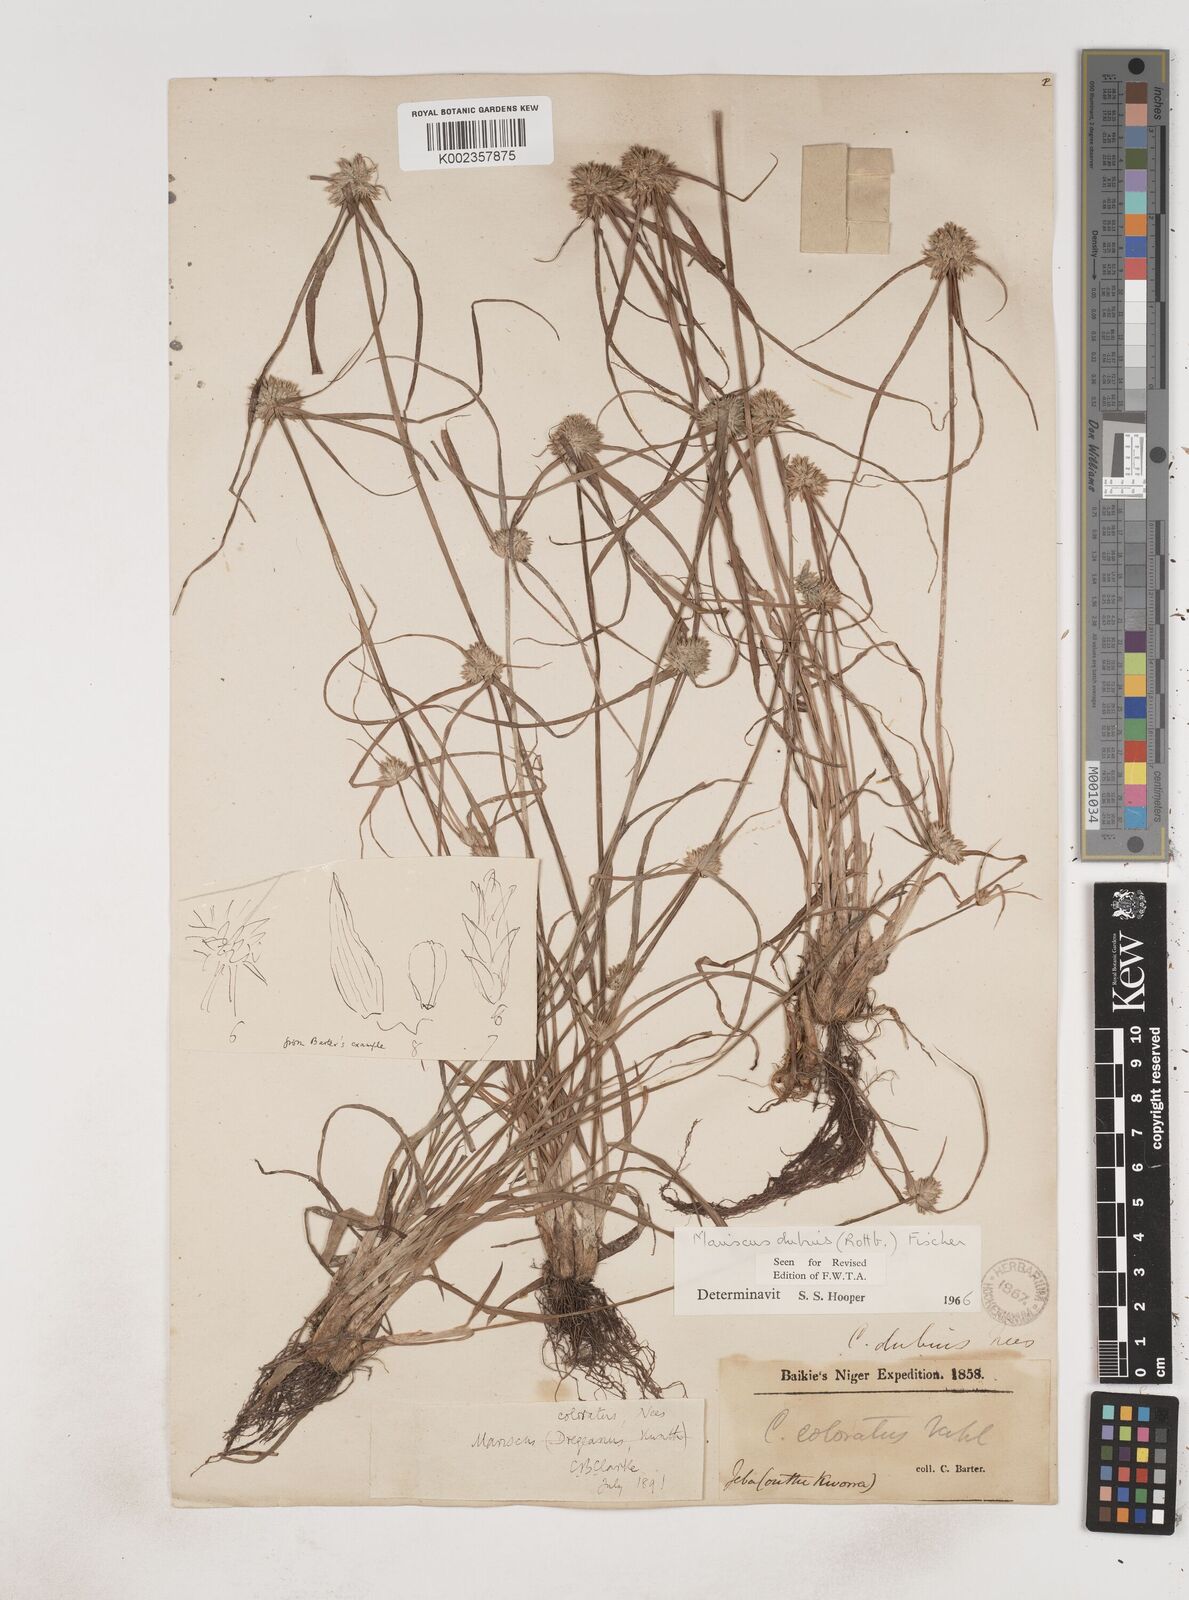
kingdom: Plantae
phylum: Tracheophyta
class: Liliopsida
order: Poales
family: Cyperaceae
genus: Cyperus
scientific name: Cyperus dubius
